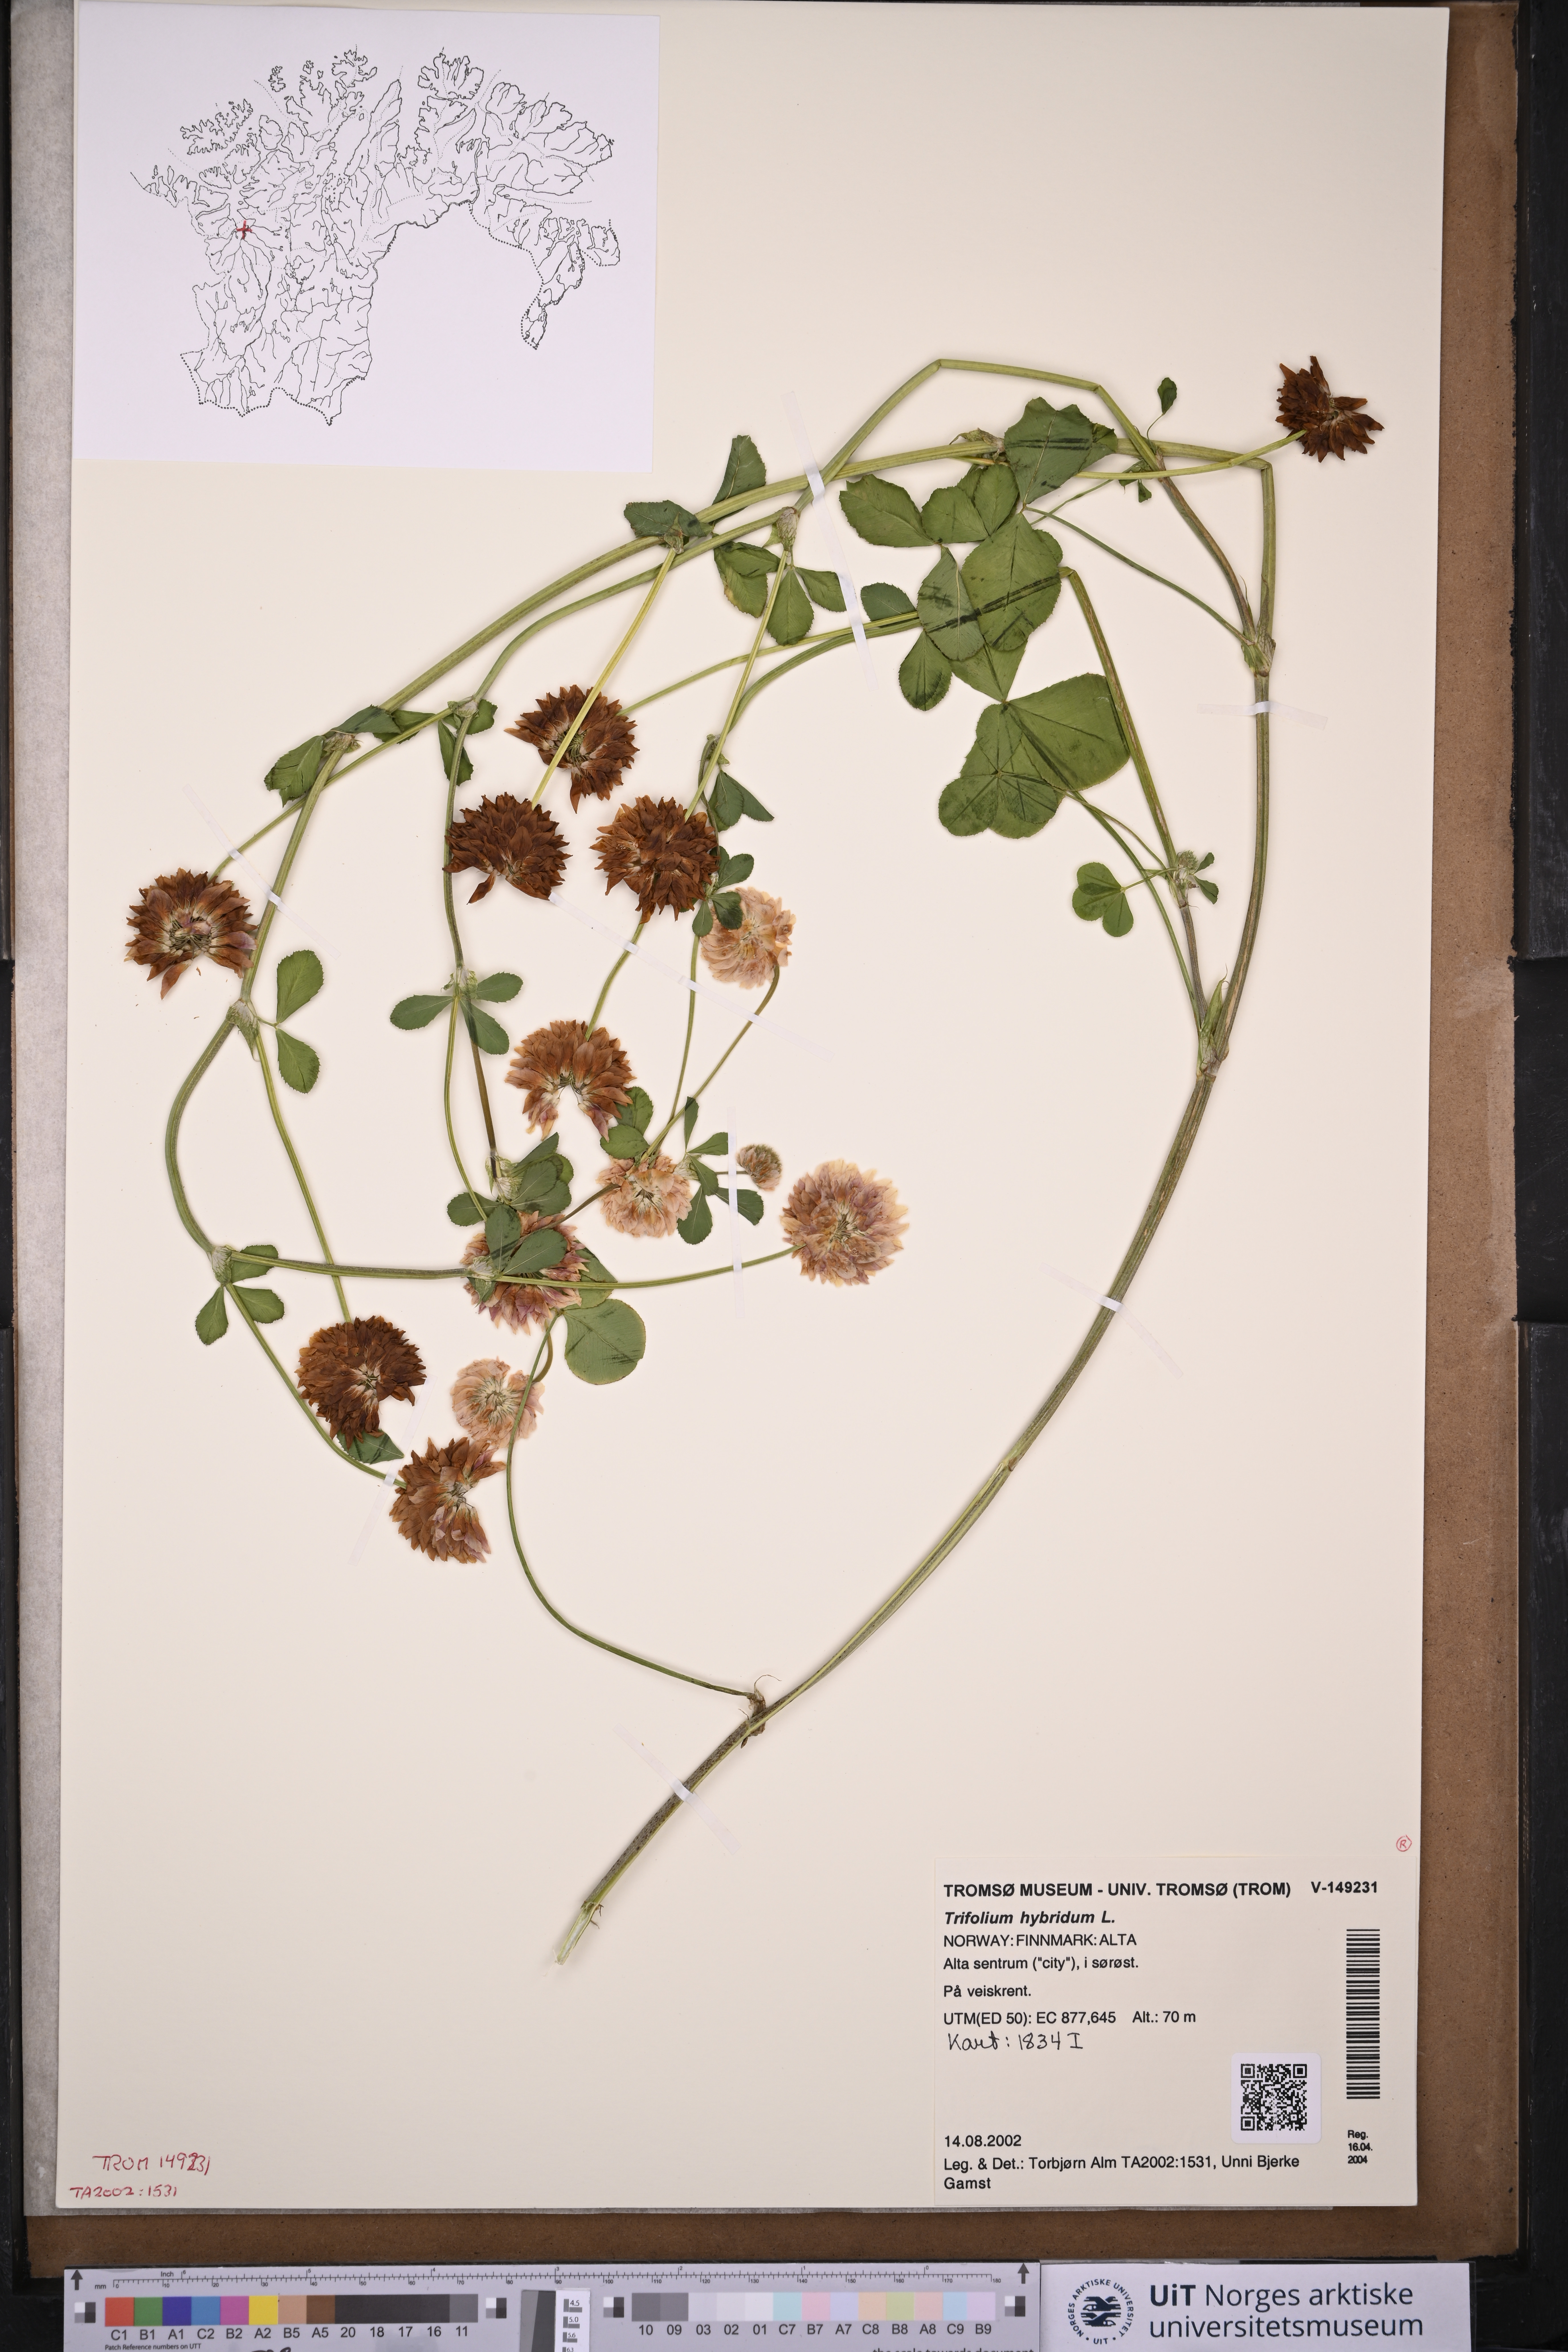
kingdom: Plantae
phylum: Tracheophyta
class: Magnoliopsida
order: Fabales
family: Fabaceae
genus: Trifolium
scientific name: Trifolium hybridum
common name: Alsike clover
